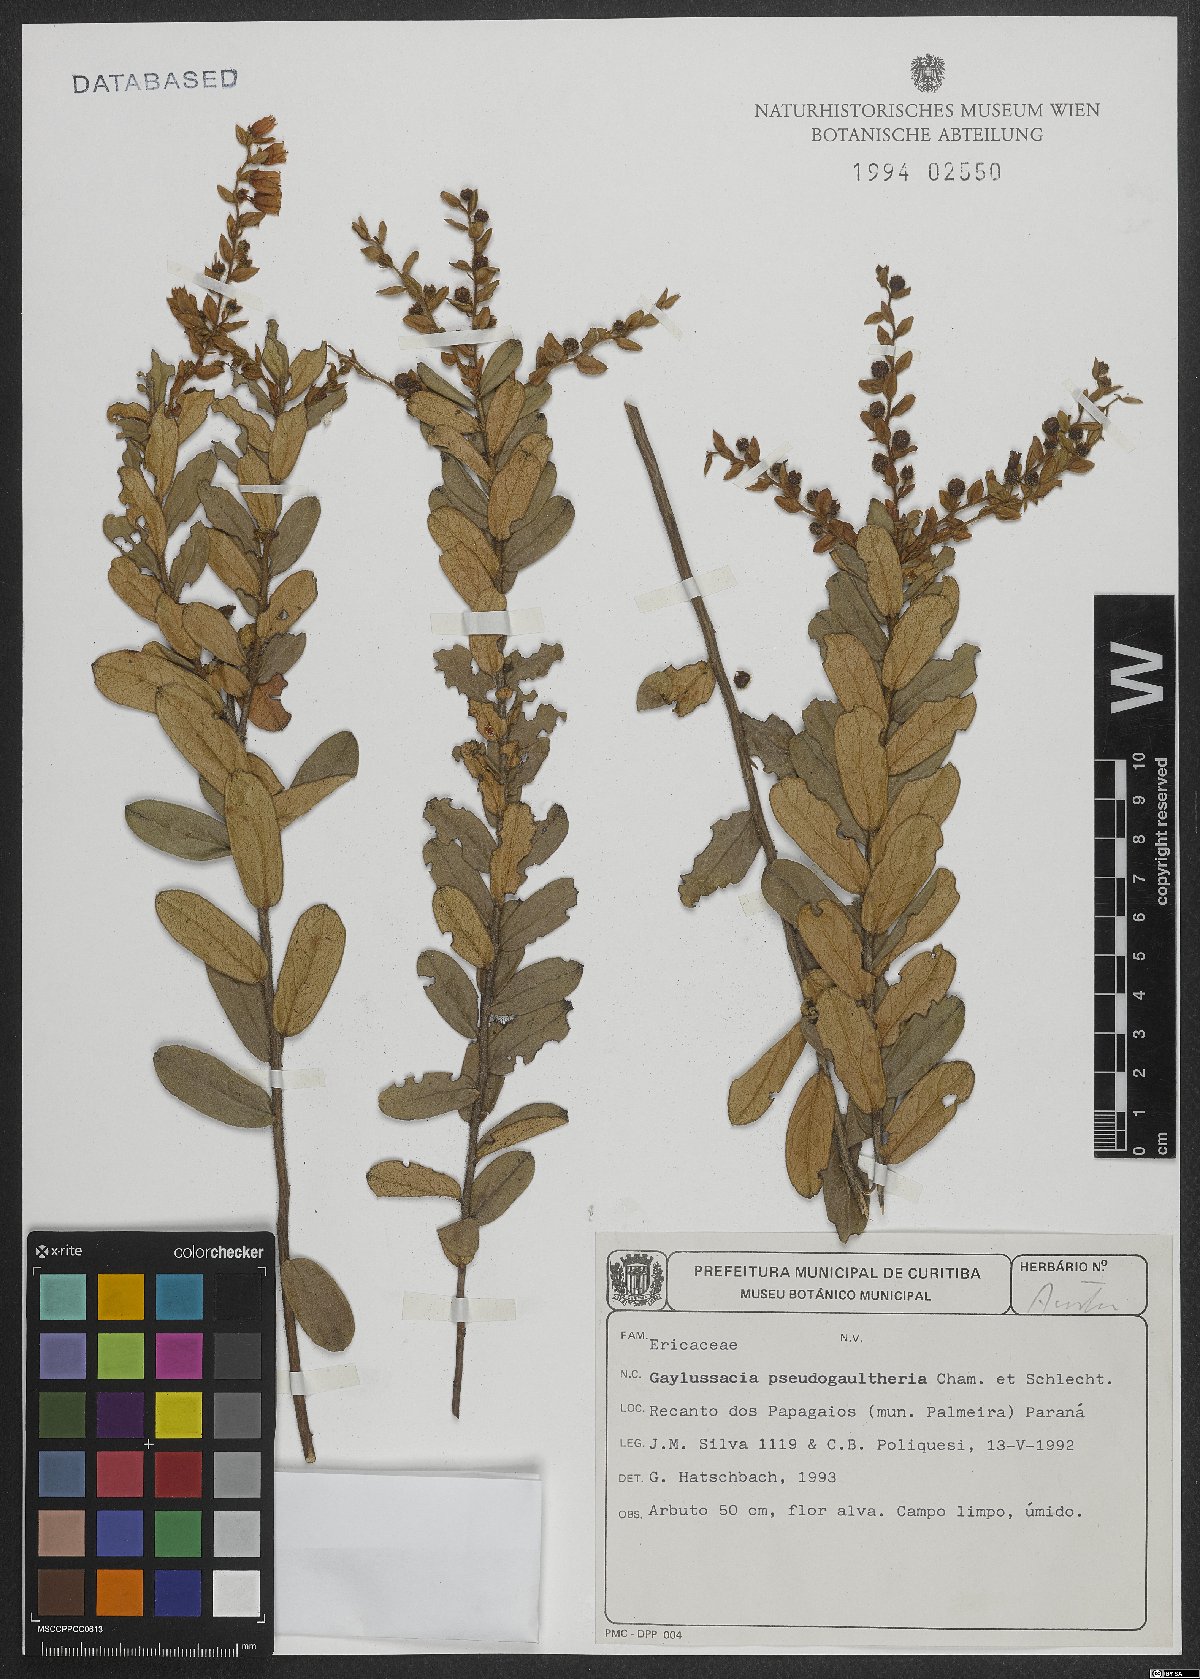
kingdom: Plantae
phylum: Tracheophyta
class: Magnoliopsida
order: Ericales
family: Ericaceae
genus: Gaylussacia
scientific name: Gaylussacia pseudogaultheria
